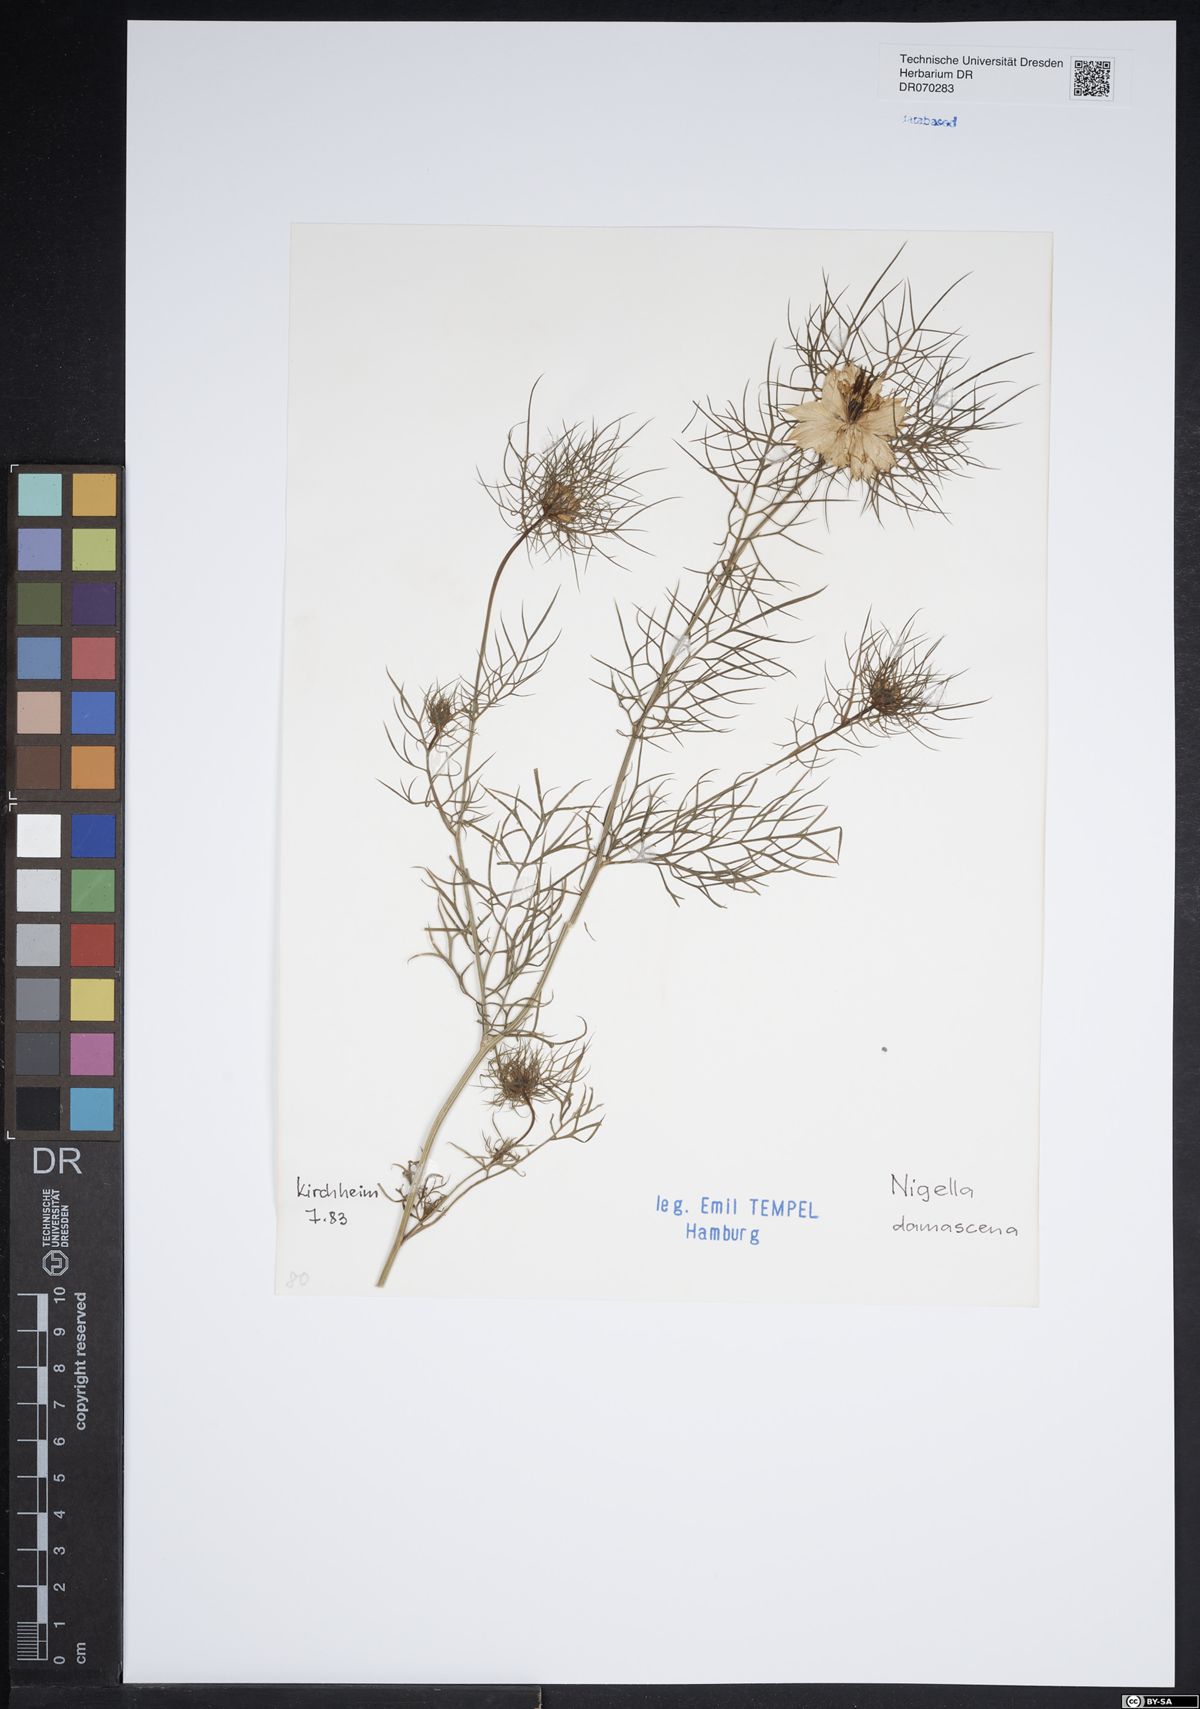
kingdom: Plantae
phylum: Tracheophyta
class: Magnoliopsida
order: Ranunculales
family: Ranunculaceae
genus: Nigella
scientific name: Nigella damascena
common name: Love-in-a-mist
